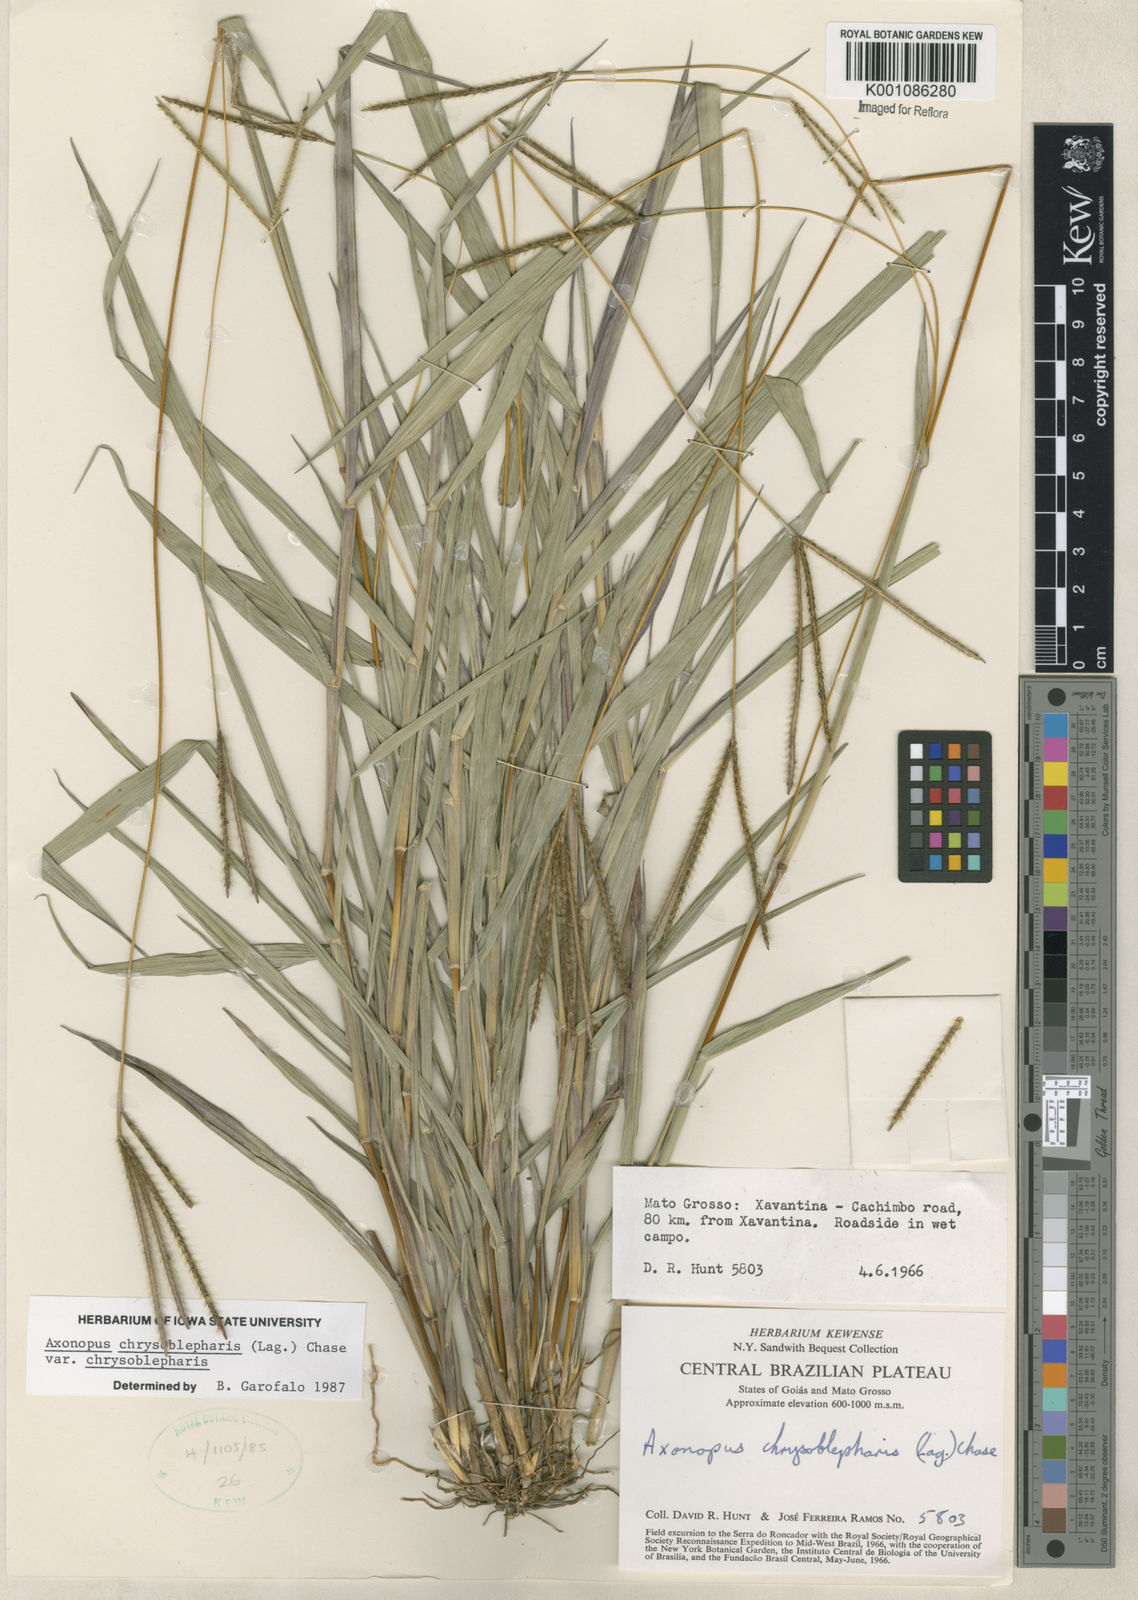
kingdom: Plantae
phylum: Tracheophyta
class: Liliopsida
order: Poales
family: Poaceae
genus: Axonopus
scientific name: Axonopus chrysoblepharis
